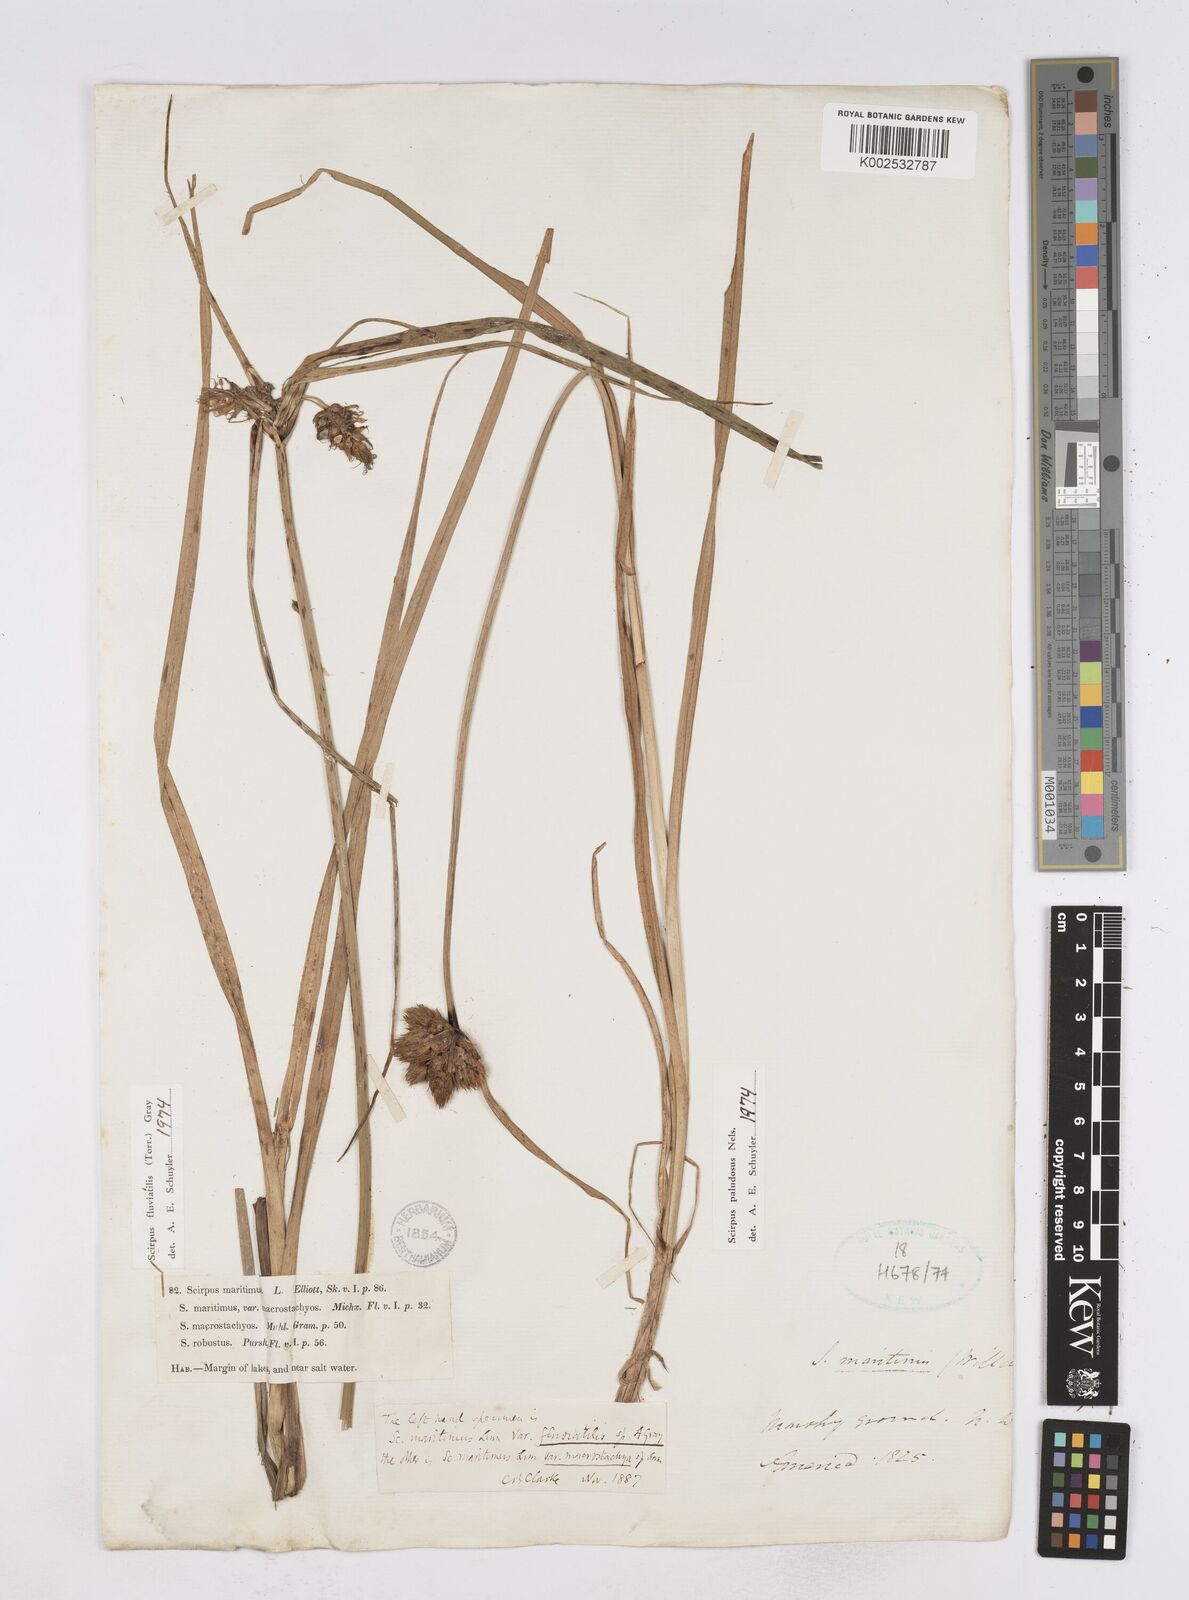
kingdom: Plantae
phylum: Tracheophyta
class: Liliopsida
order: Poales
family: Cyperaceae
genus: Bolboschoenus
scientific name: Bolboschoenus
